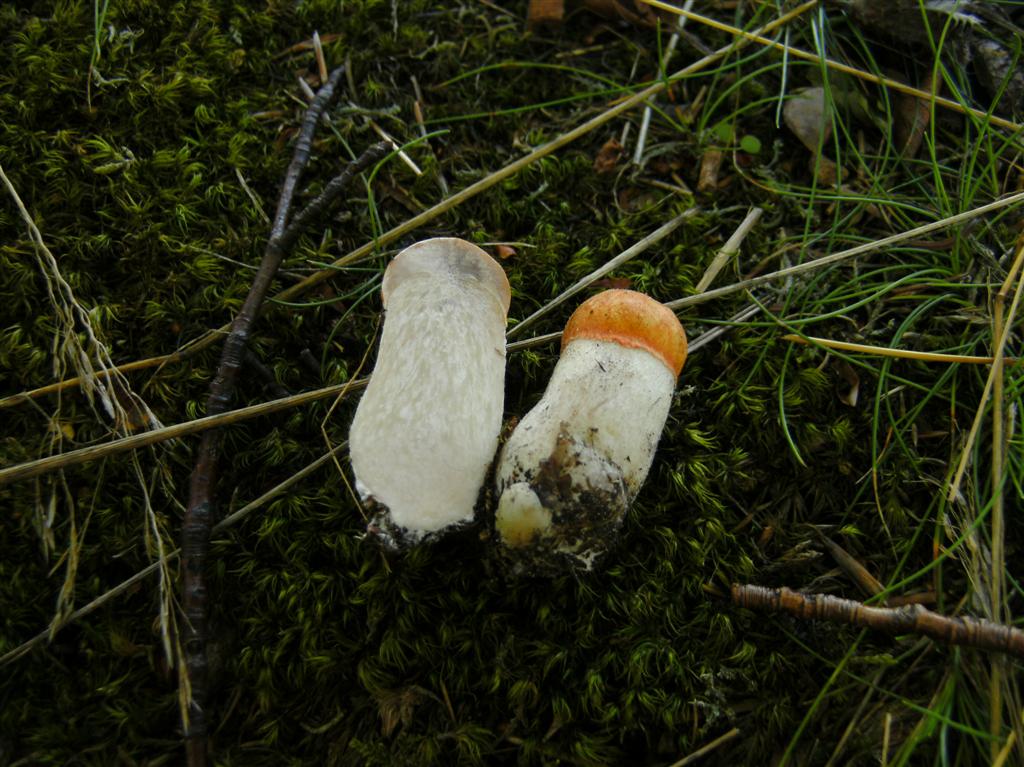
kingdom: Fungi
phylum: Basidiomycota
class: Agaricomycetes
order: Boletales
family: Boletaceae
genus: Leccinum
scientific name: Leccinum albostipitatum
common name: aspe-skælrørhat
